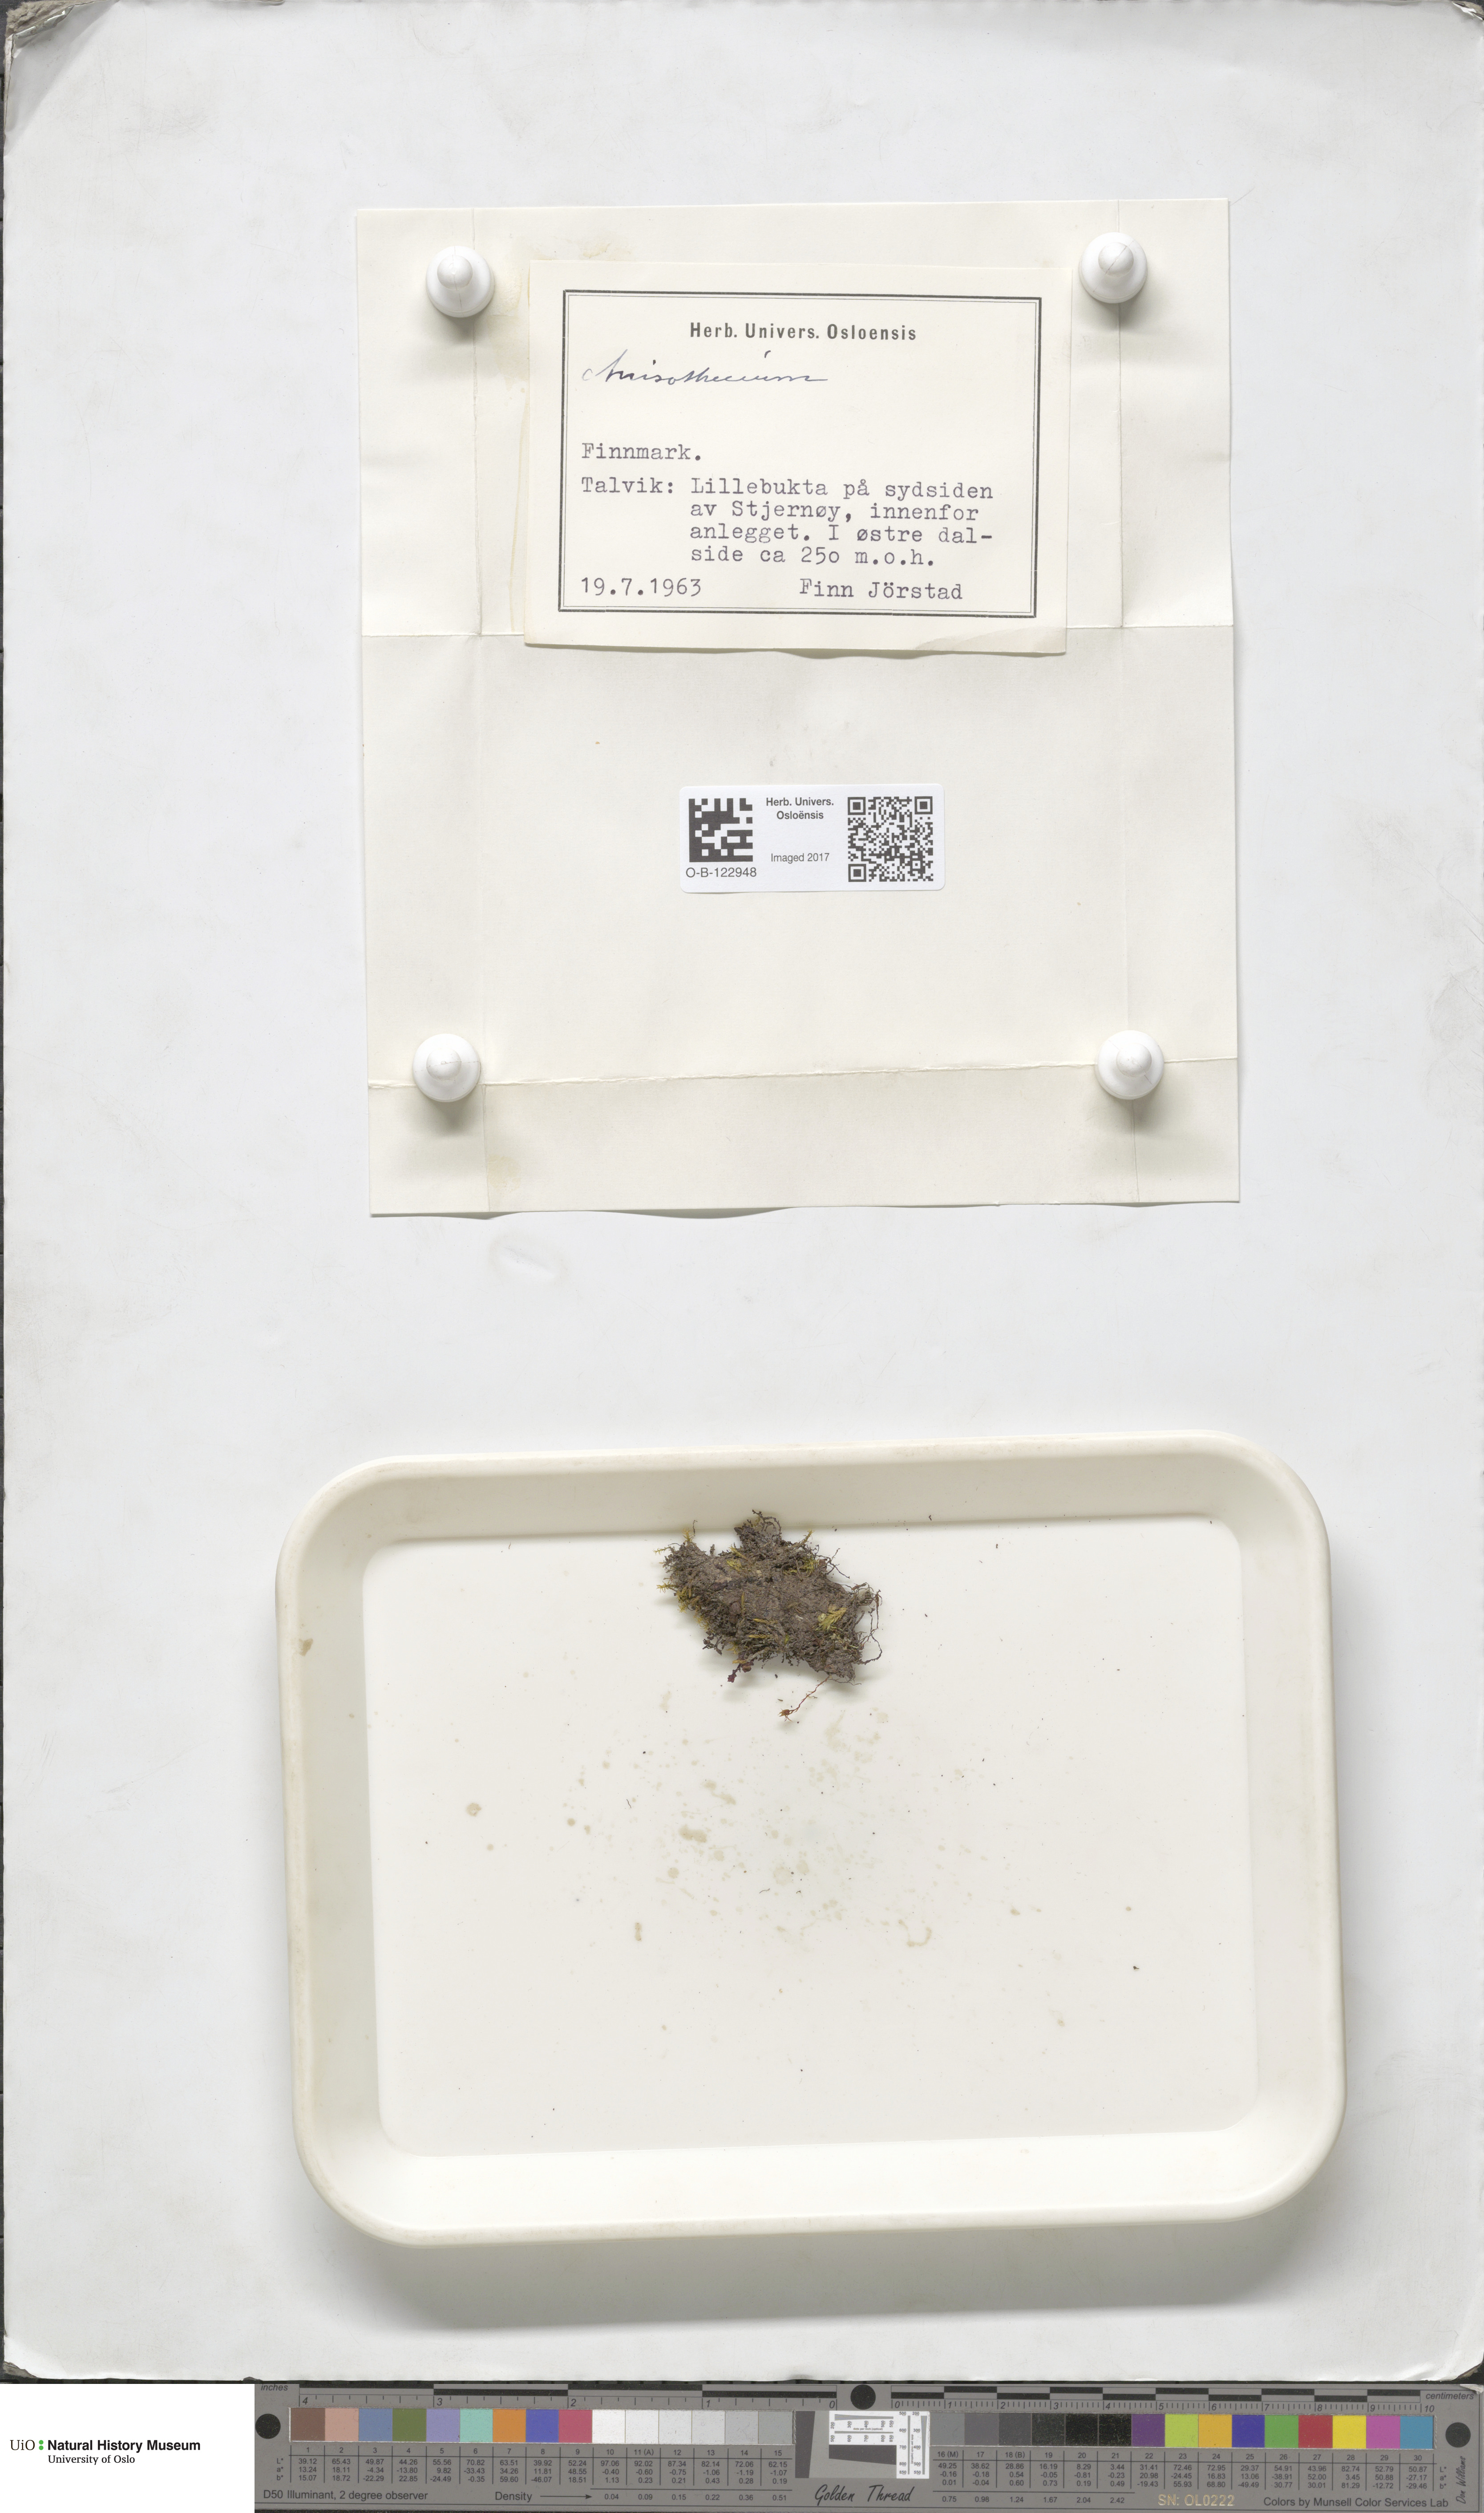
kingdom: Plantae
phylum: Bryophyta
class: Bryopsida
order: Dicranales
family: Dicranellaceae
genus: Dicranella
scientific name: Dicranella
